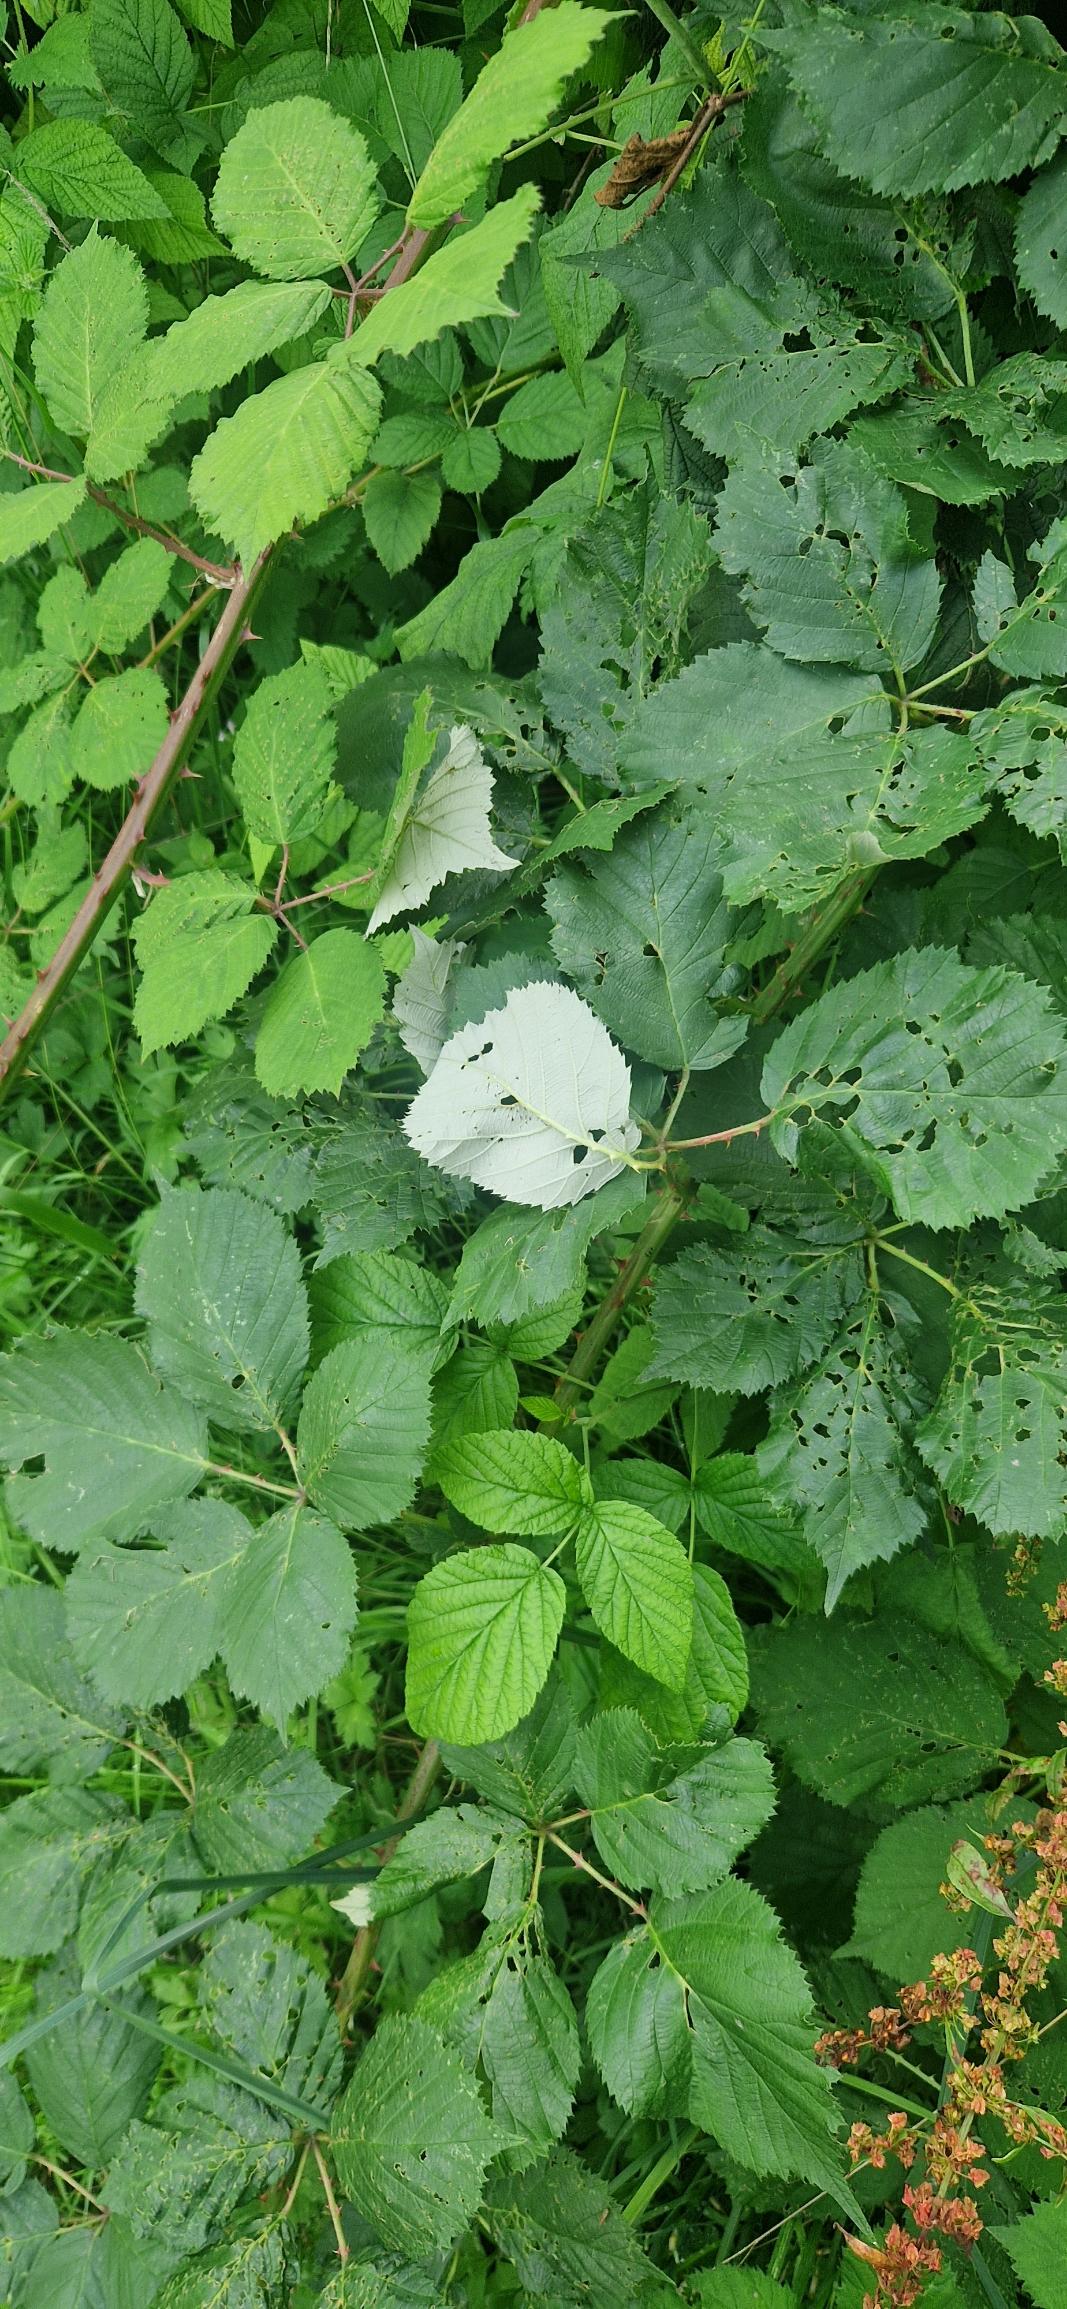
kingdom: Plantae
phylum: Tracheophyta
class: Magnoliopsida
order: Rosales
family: Rosaceae
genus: Rubus
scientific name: Rubus armeniacus
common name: Armensk brombær
